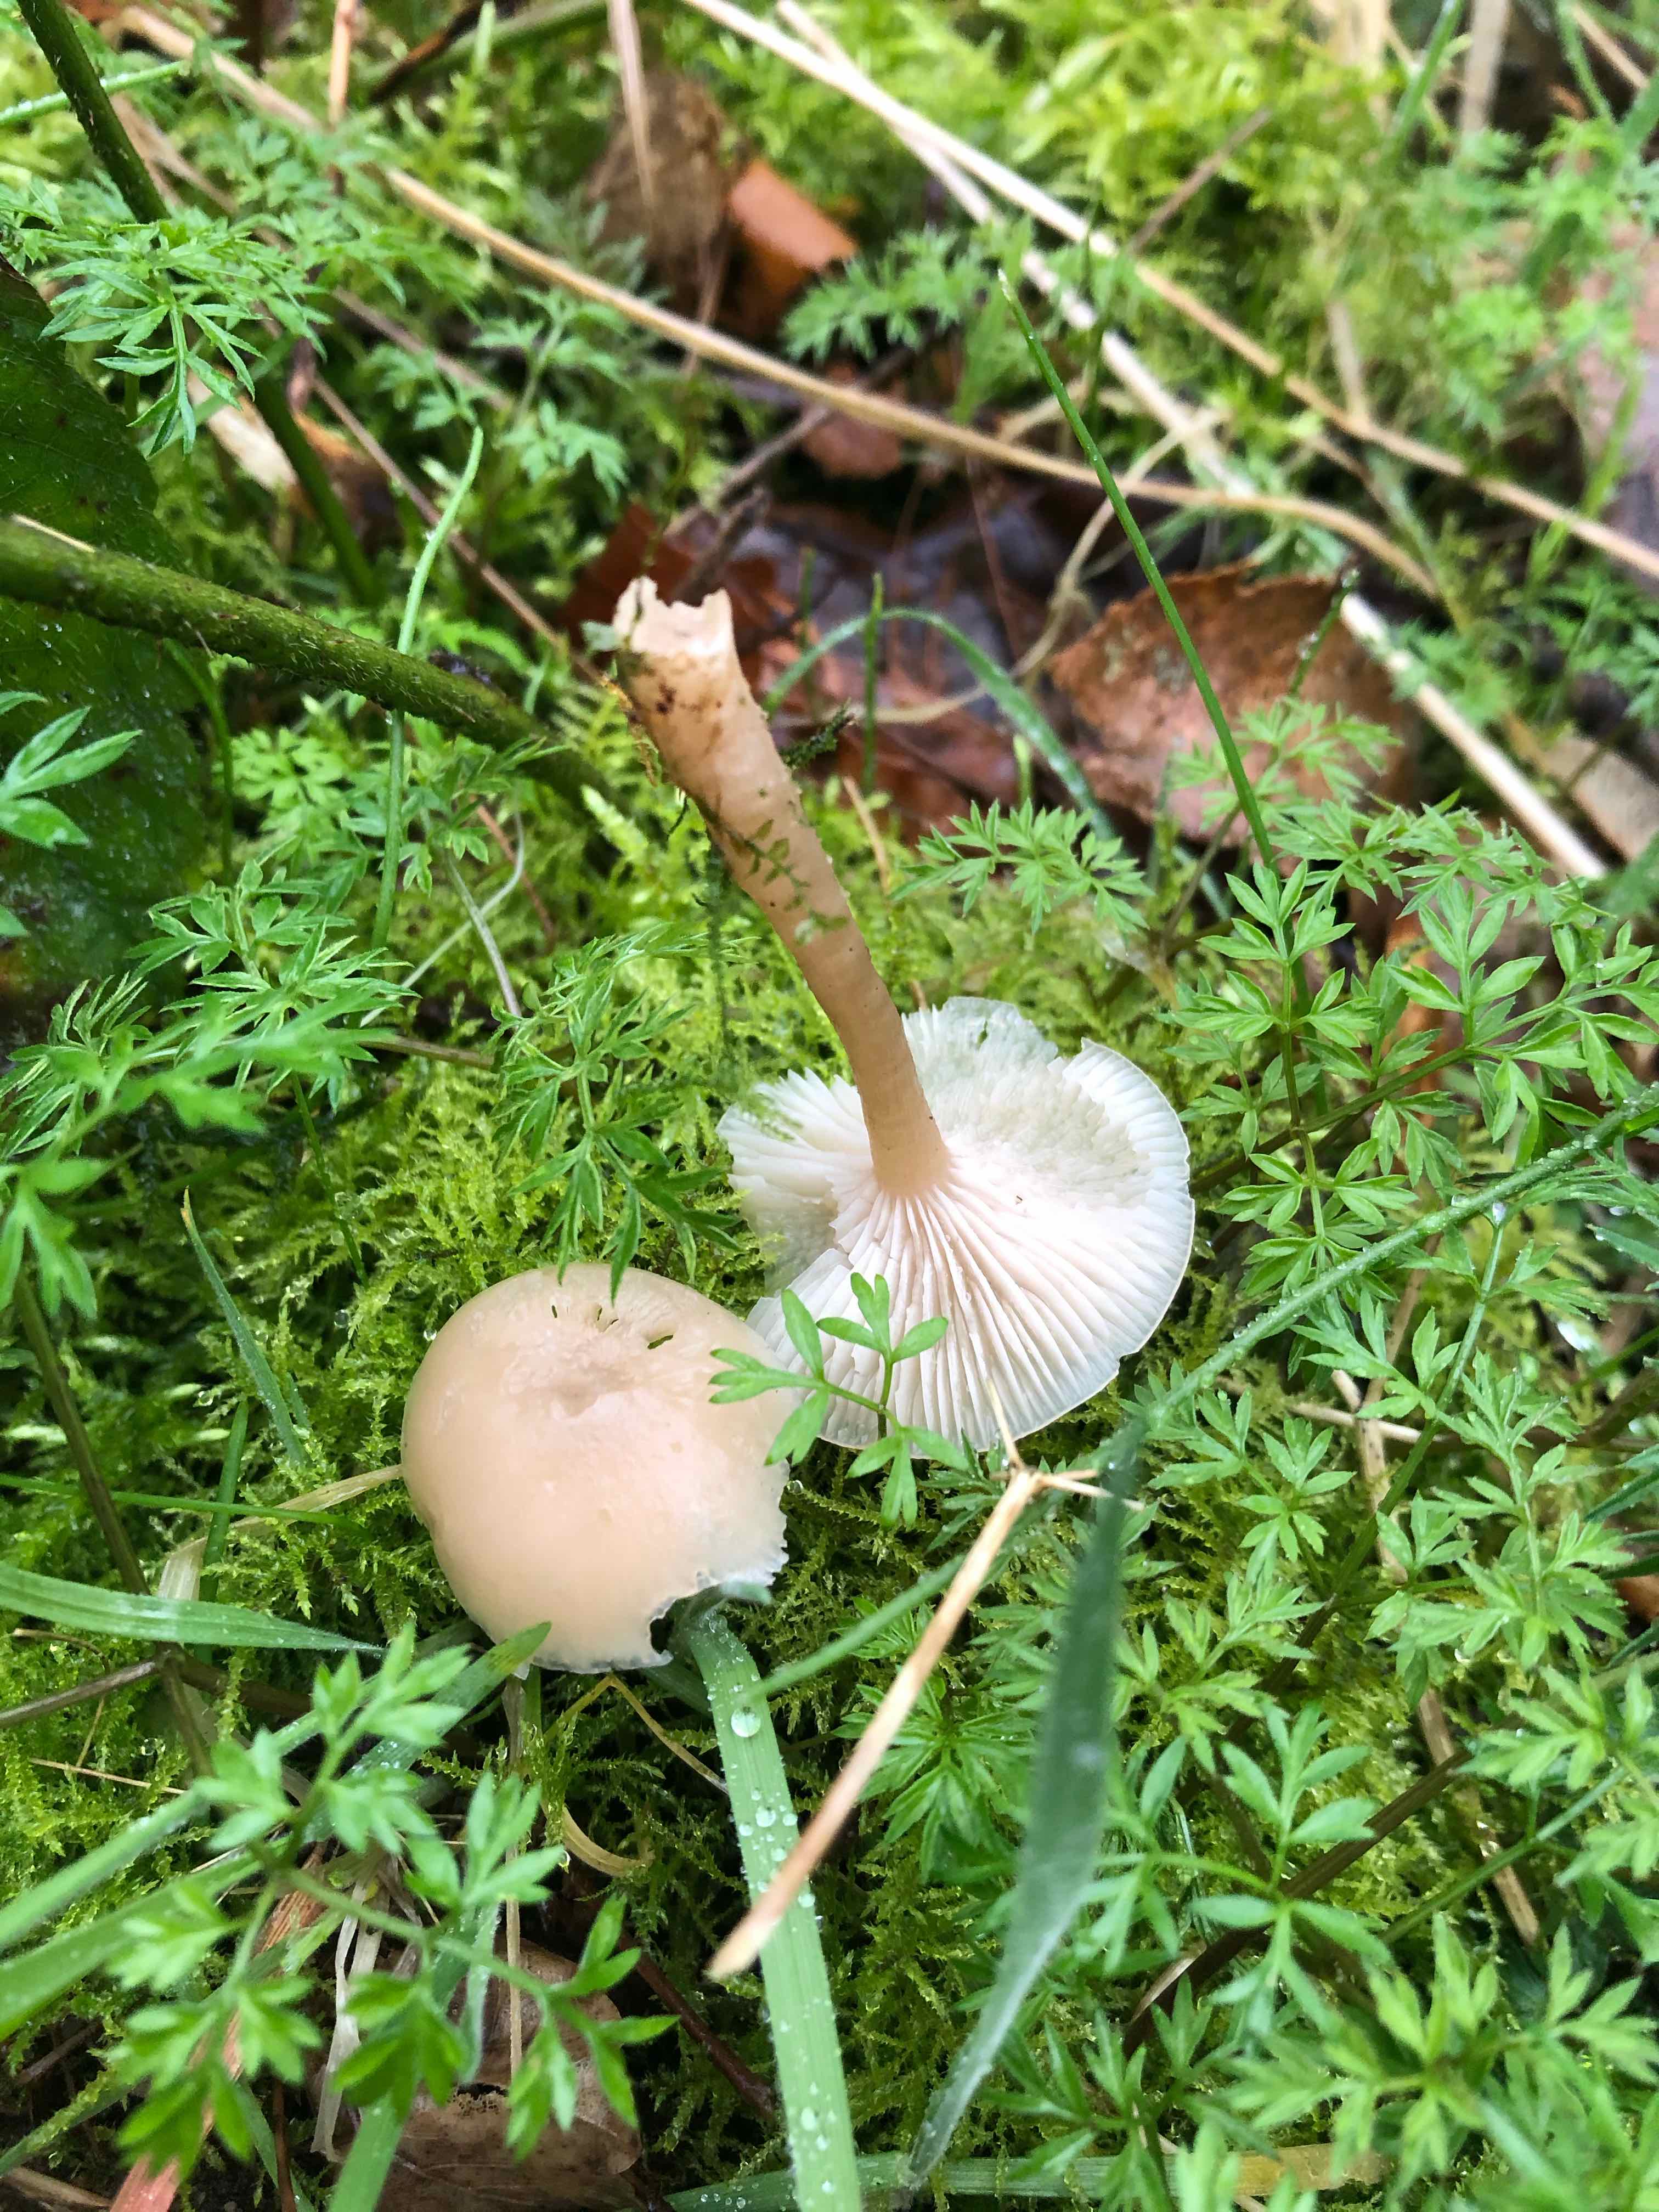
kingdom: Fungi
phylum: Basidiomycota
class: Agaricomycetes
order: Agaricales
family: Tricholomataceae
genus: Clitocybe
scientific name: Clitocybe fragrans
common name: vellugtende tragthat
